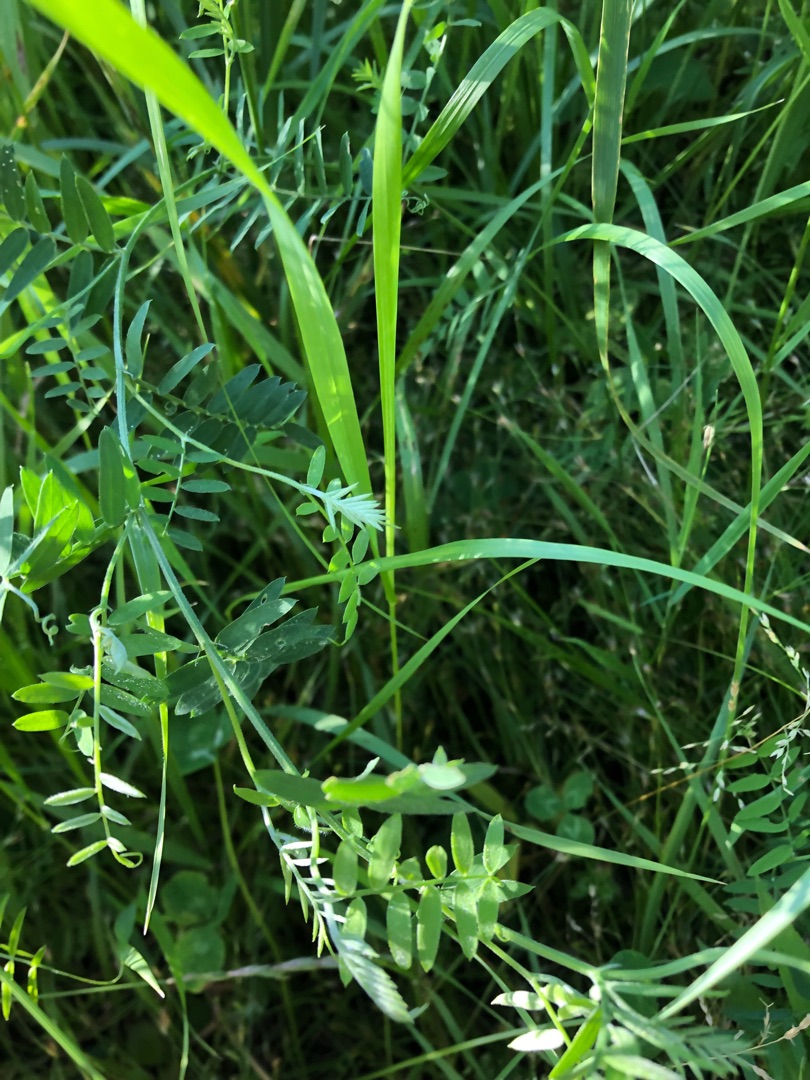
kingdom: Plantae
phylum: Tracheophyta
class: Magnoliopsida
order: Fabales
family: Fabaceae
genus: Vicia
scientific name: Vicia cracca
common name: Muse-vikke
